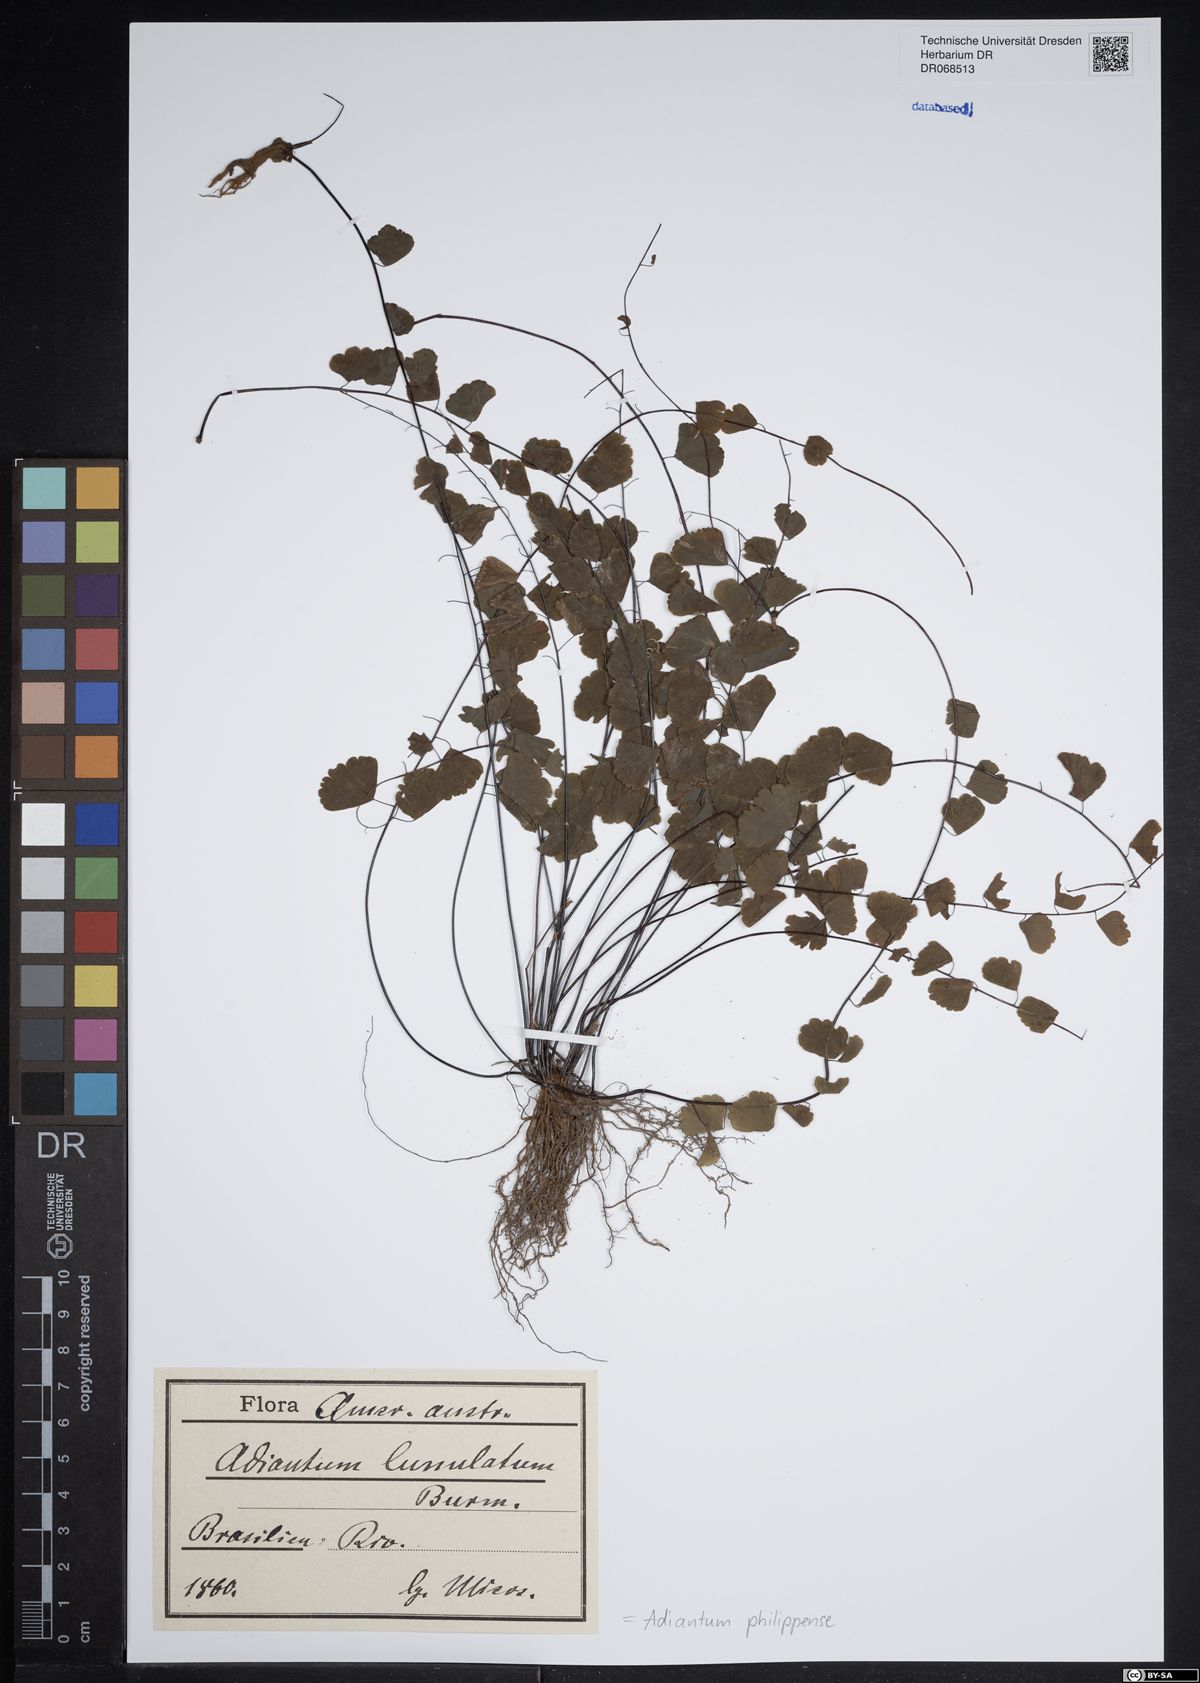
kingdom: Plantae
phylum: Tracheophyta
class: Polypodiopsida
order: Polypodiales
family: Pteridaceae
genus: Adiantum
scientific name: Adiantum philippense
